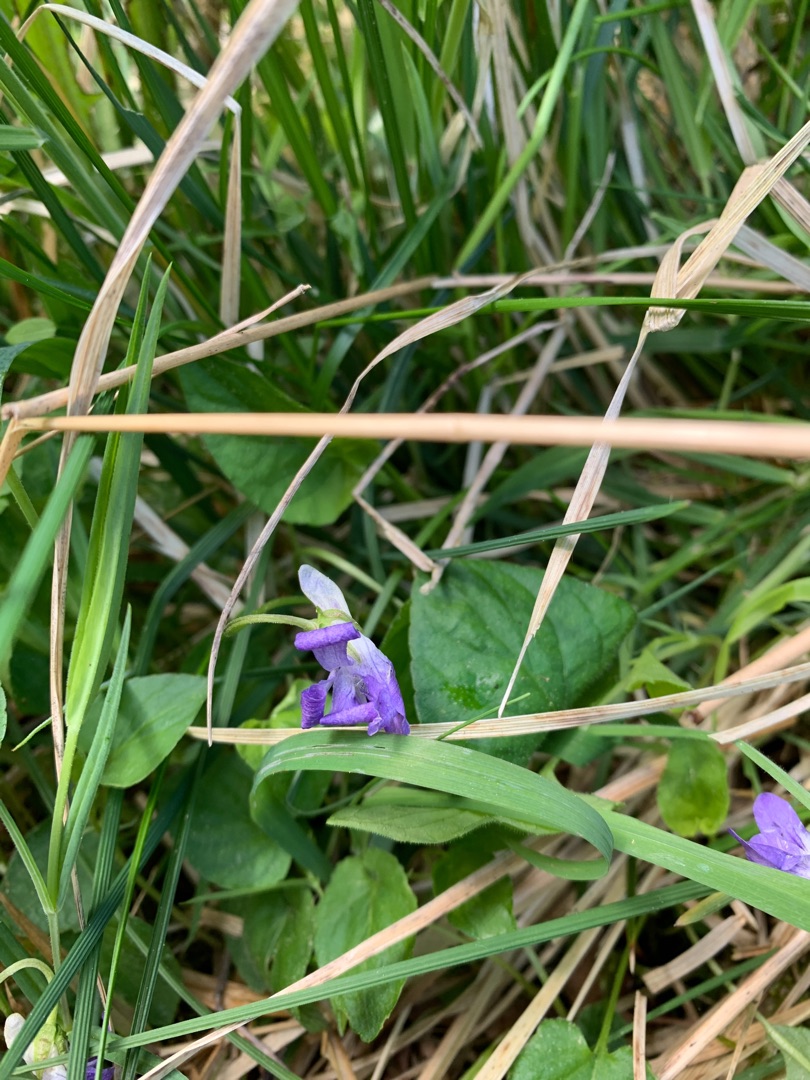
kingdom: Plantae
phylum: Tracheophyta
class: Magnoliopsida
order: Malpighiales
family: Violaceae
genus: Viola
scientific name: Viola riviniana
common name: Krat-viol
